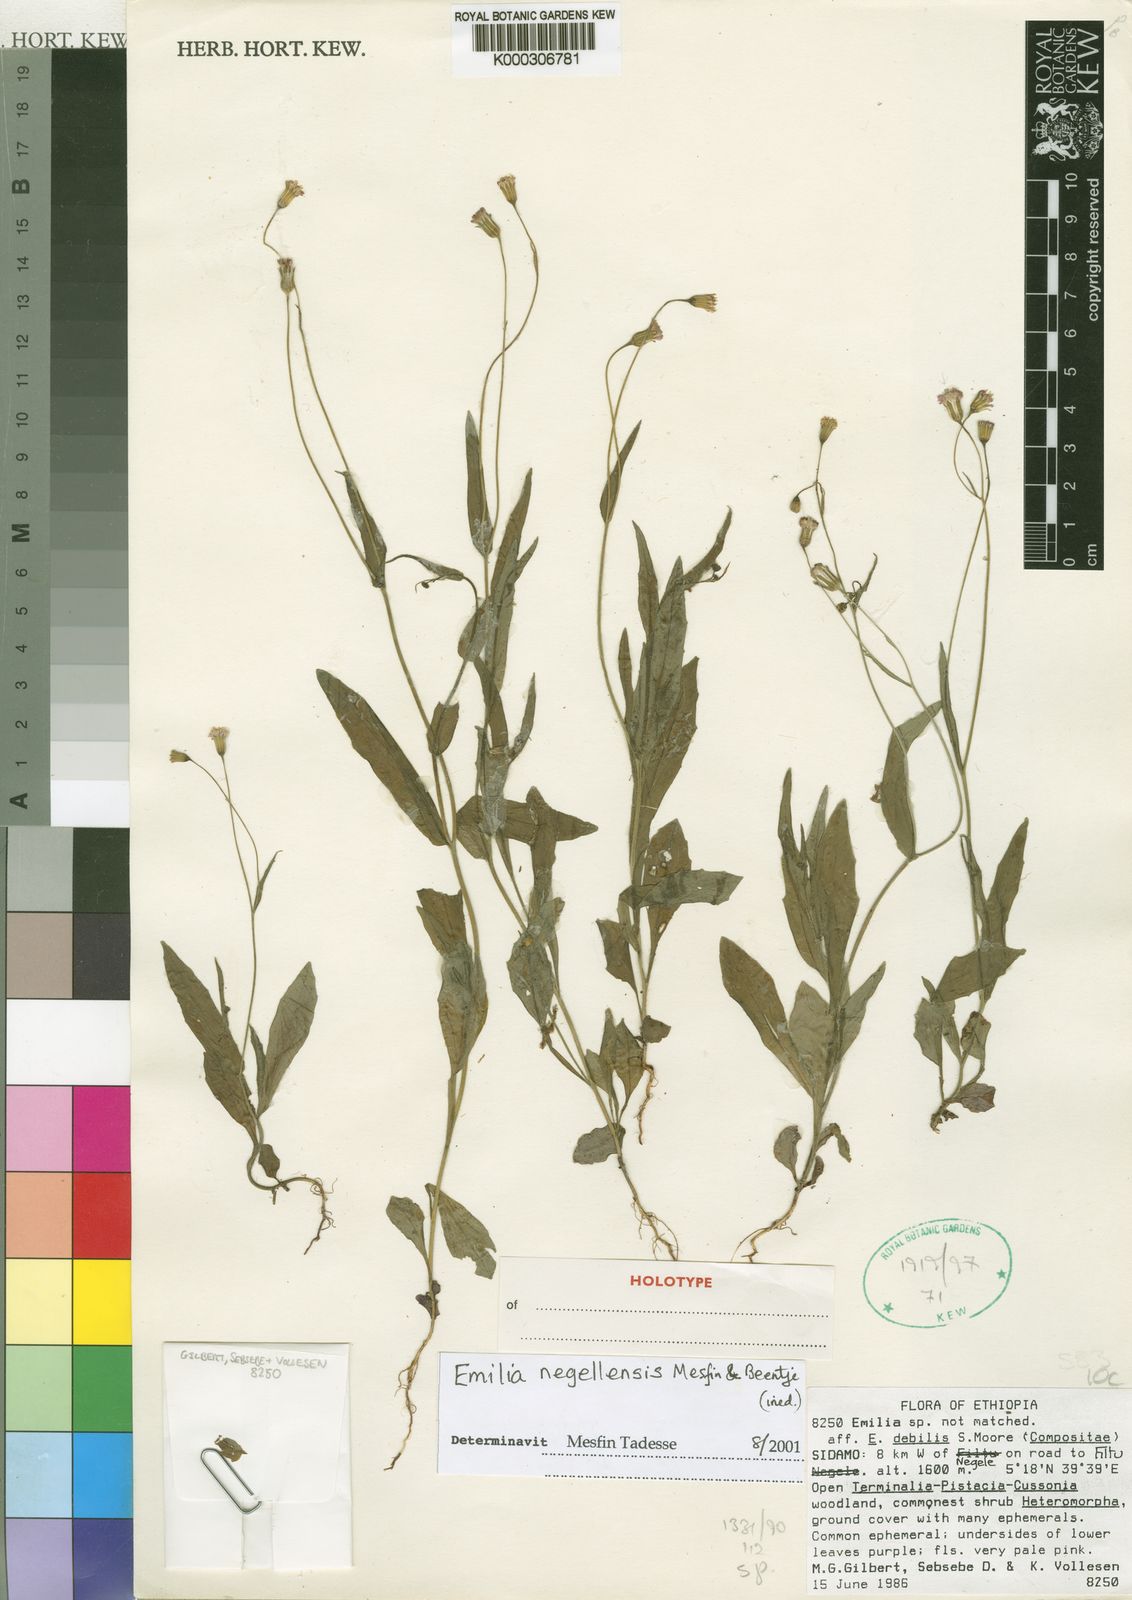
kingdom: Plantae
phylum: Tracheophyta
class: Magnoliopsida
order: Asterales
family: Asteraceae
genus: Emilia
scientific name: Emilia negellensis
